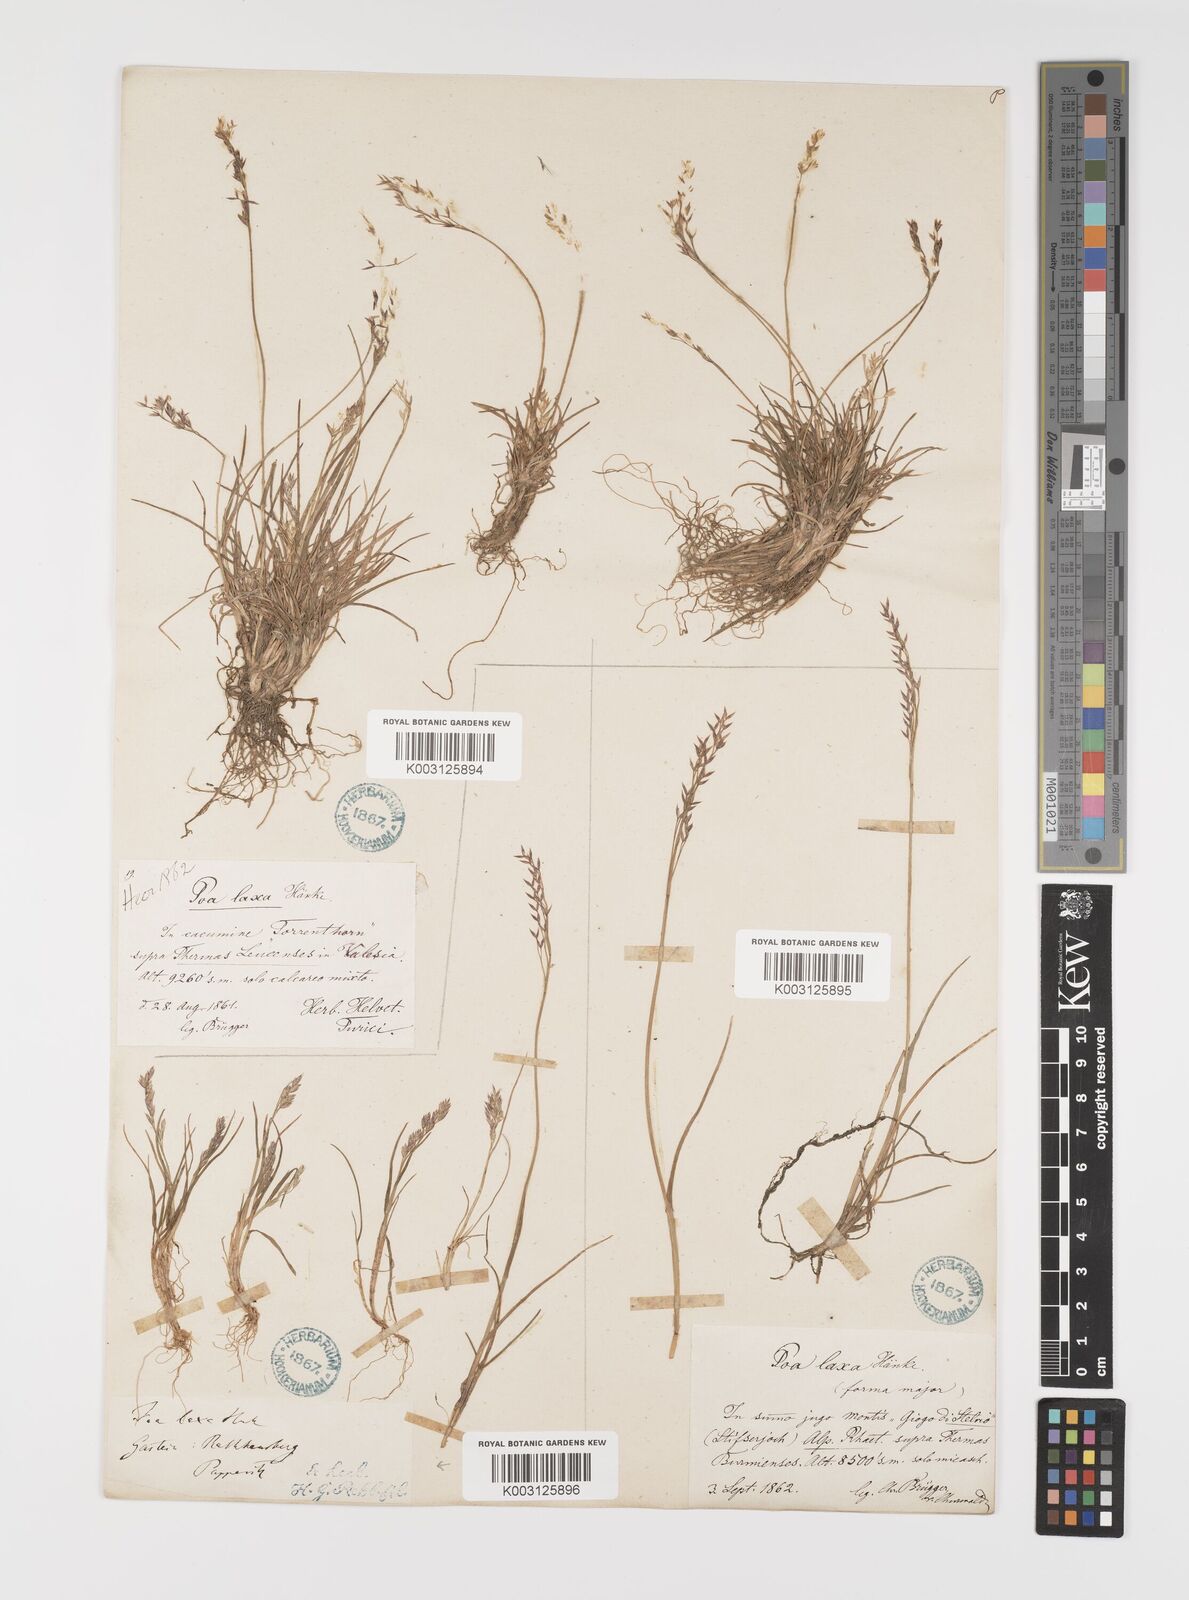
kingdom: Plantae
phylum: Tracheophyta
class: Liliopsida
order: Poales
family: Poaceae
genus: Poa
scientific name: Poa laxa
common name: Lax bluegrass
